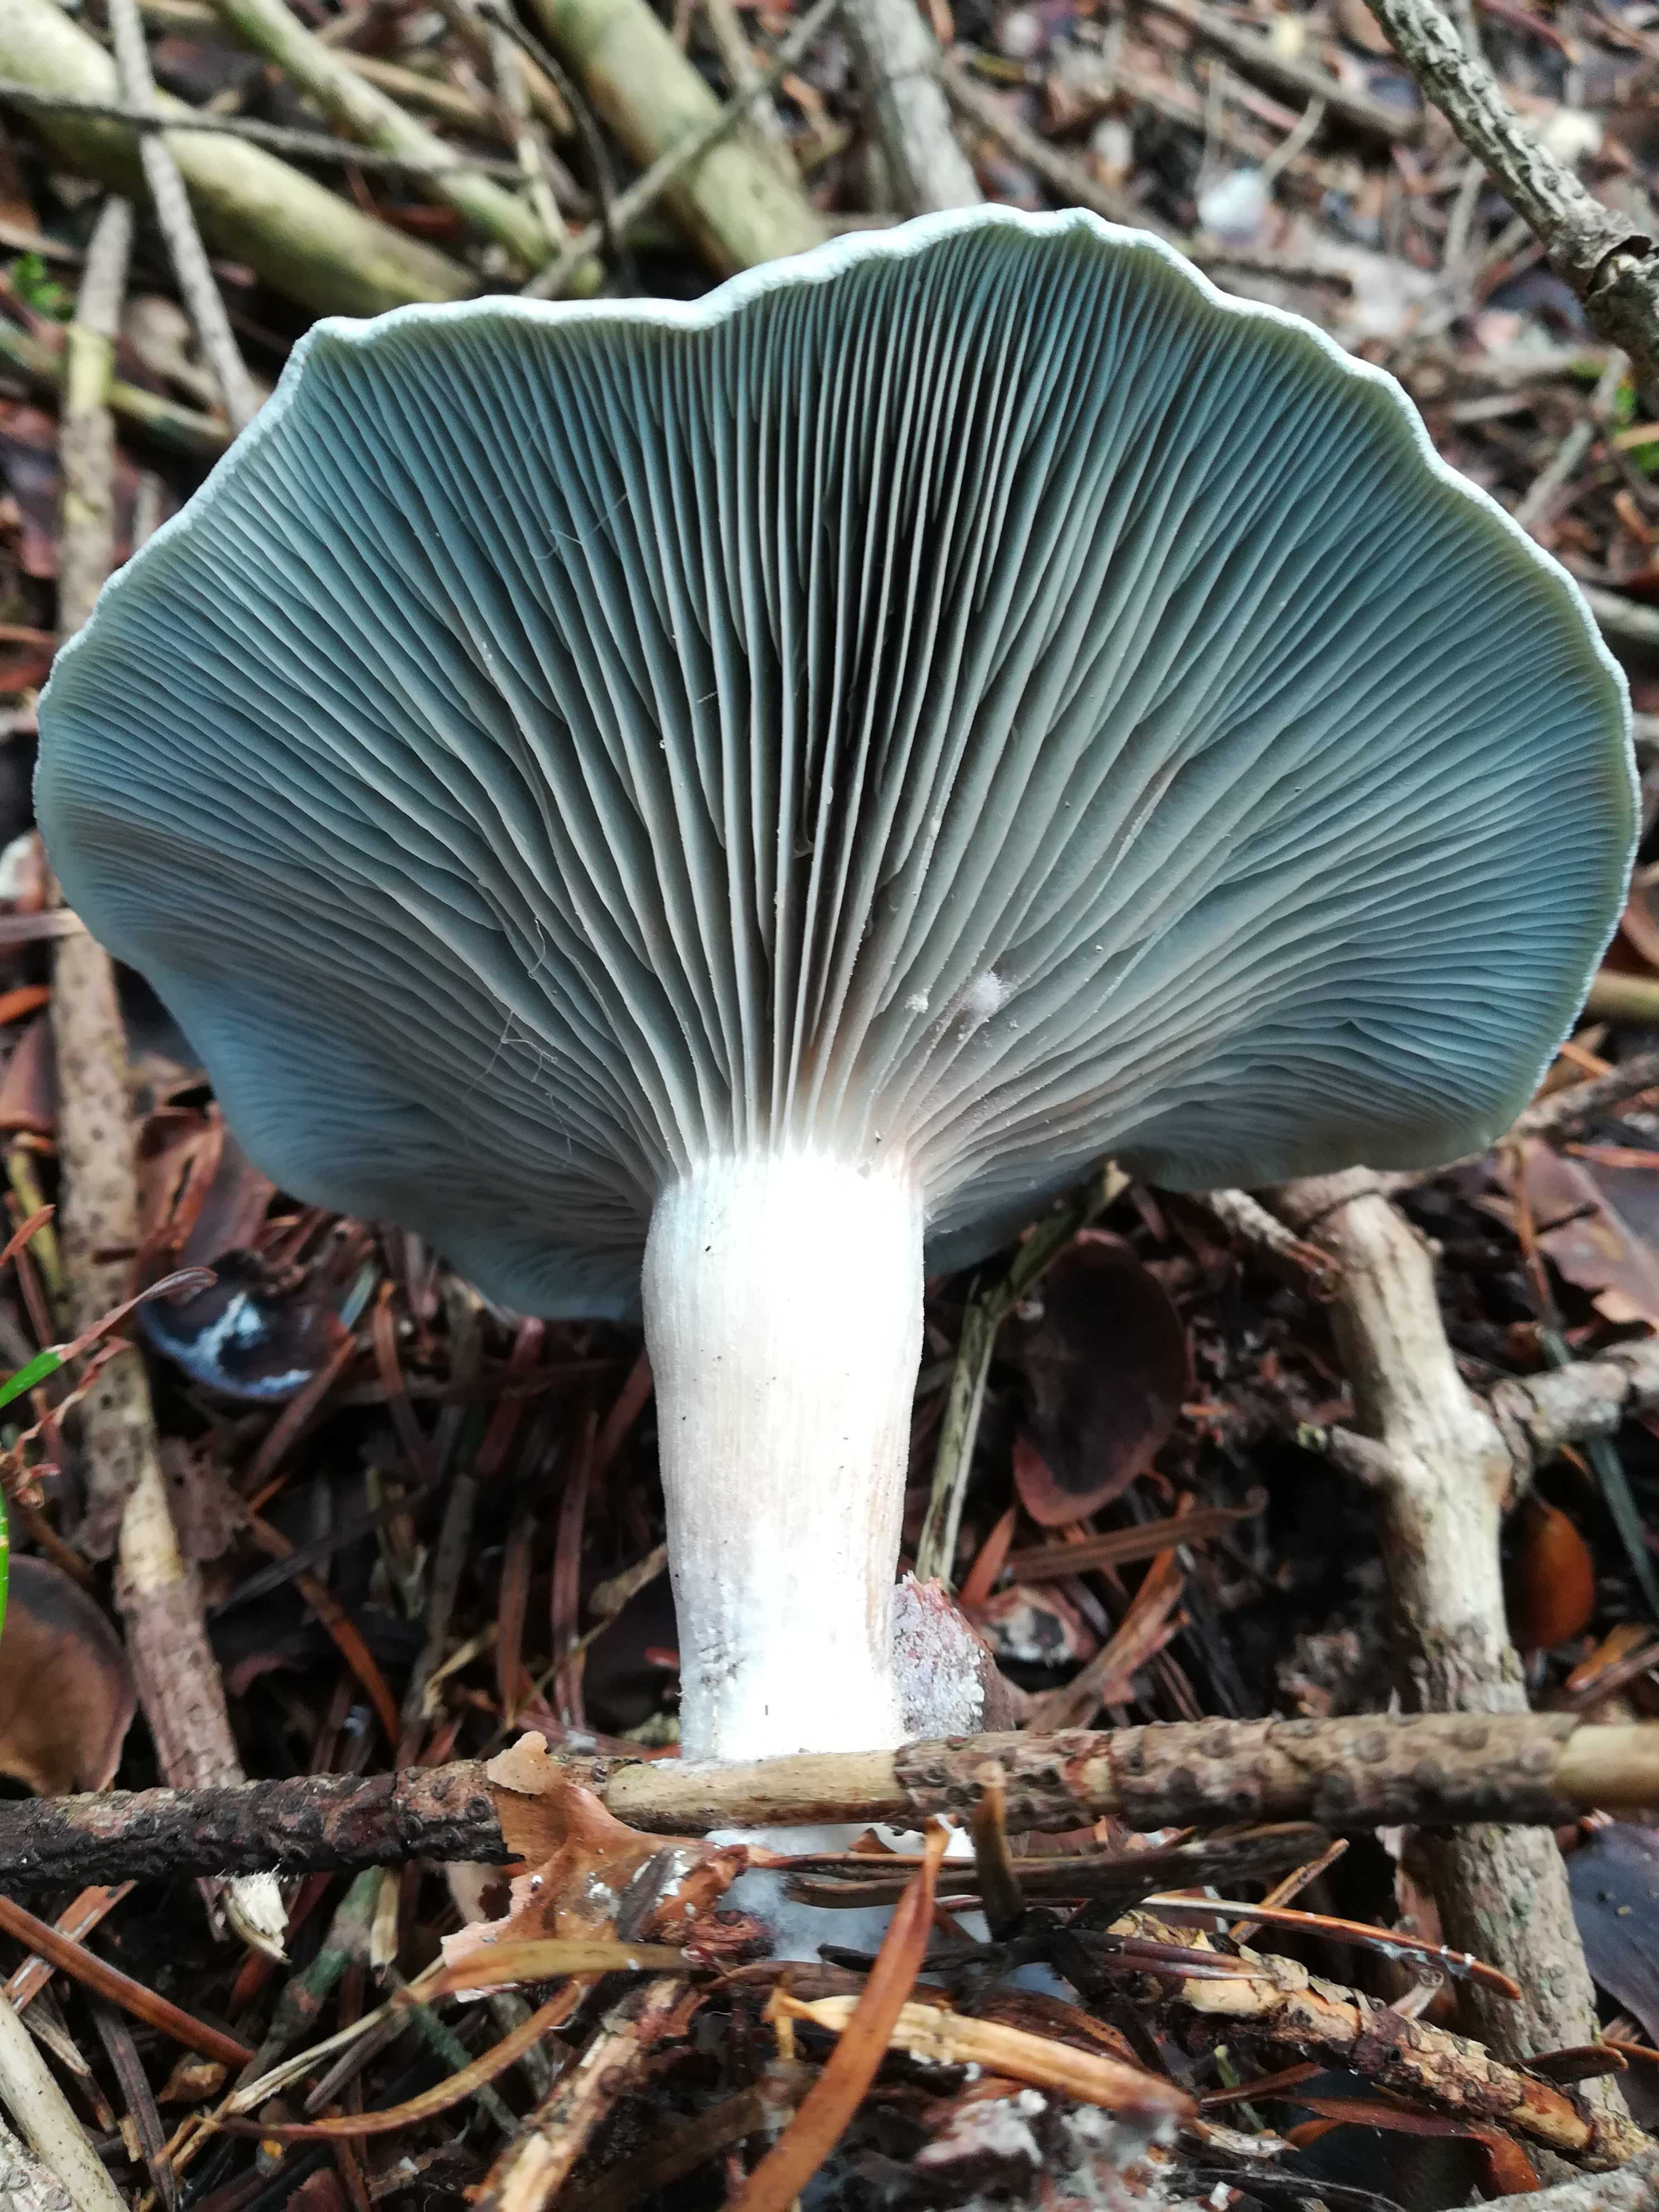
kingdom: Fungi
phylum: Basidiomycota
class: Agaricomycetes
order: Agaricales
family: Tricholomataceae
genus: Clitocybe
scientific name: Clitocybe odora
